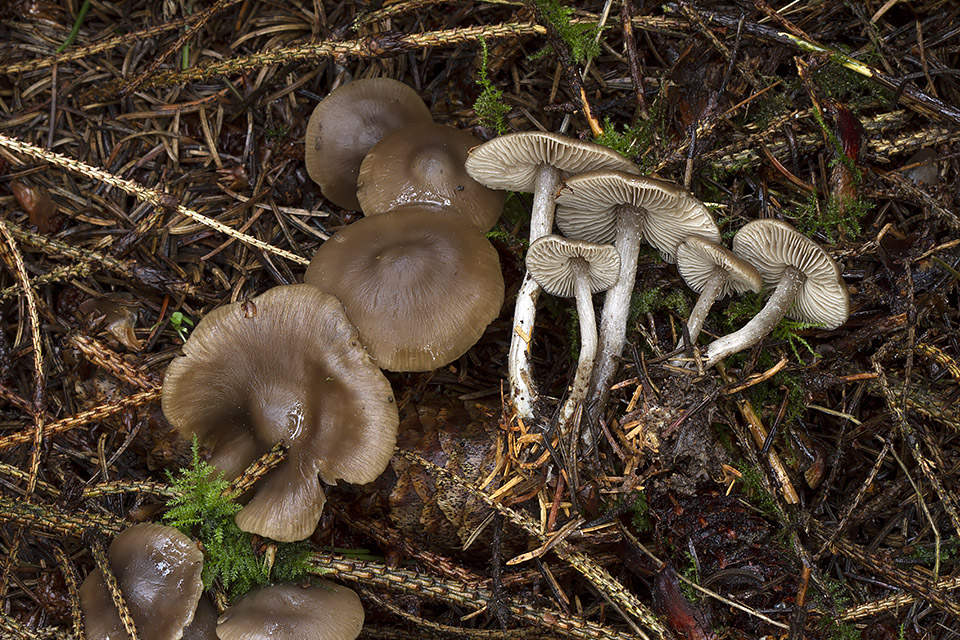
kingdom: Fungi
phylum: Basidiomycota
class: Agaricomycetes
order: Agaricales
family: Lyophyllaceae
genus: Myochromella
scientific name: Myochromella boudieri
